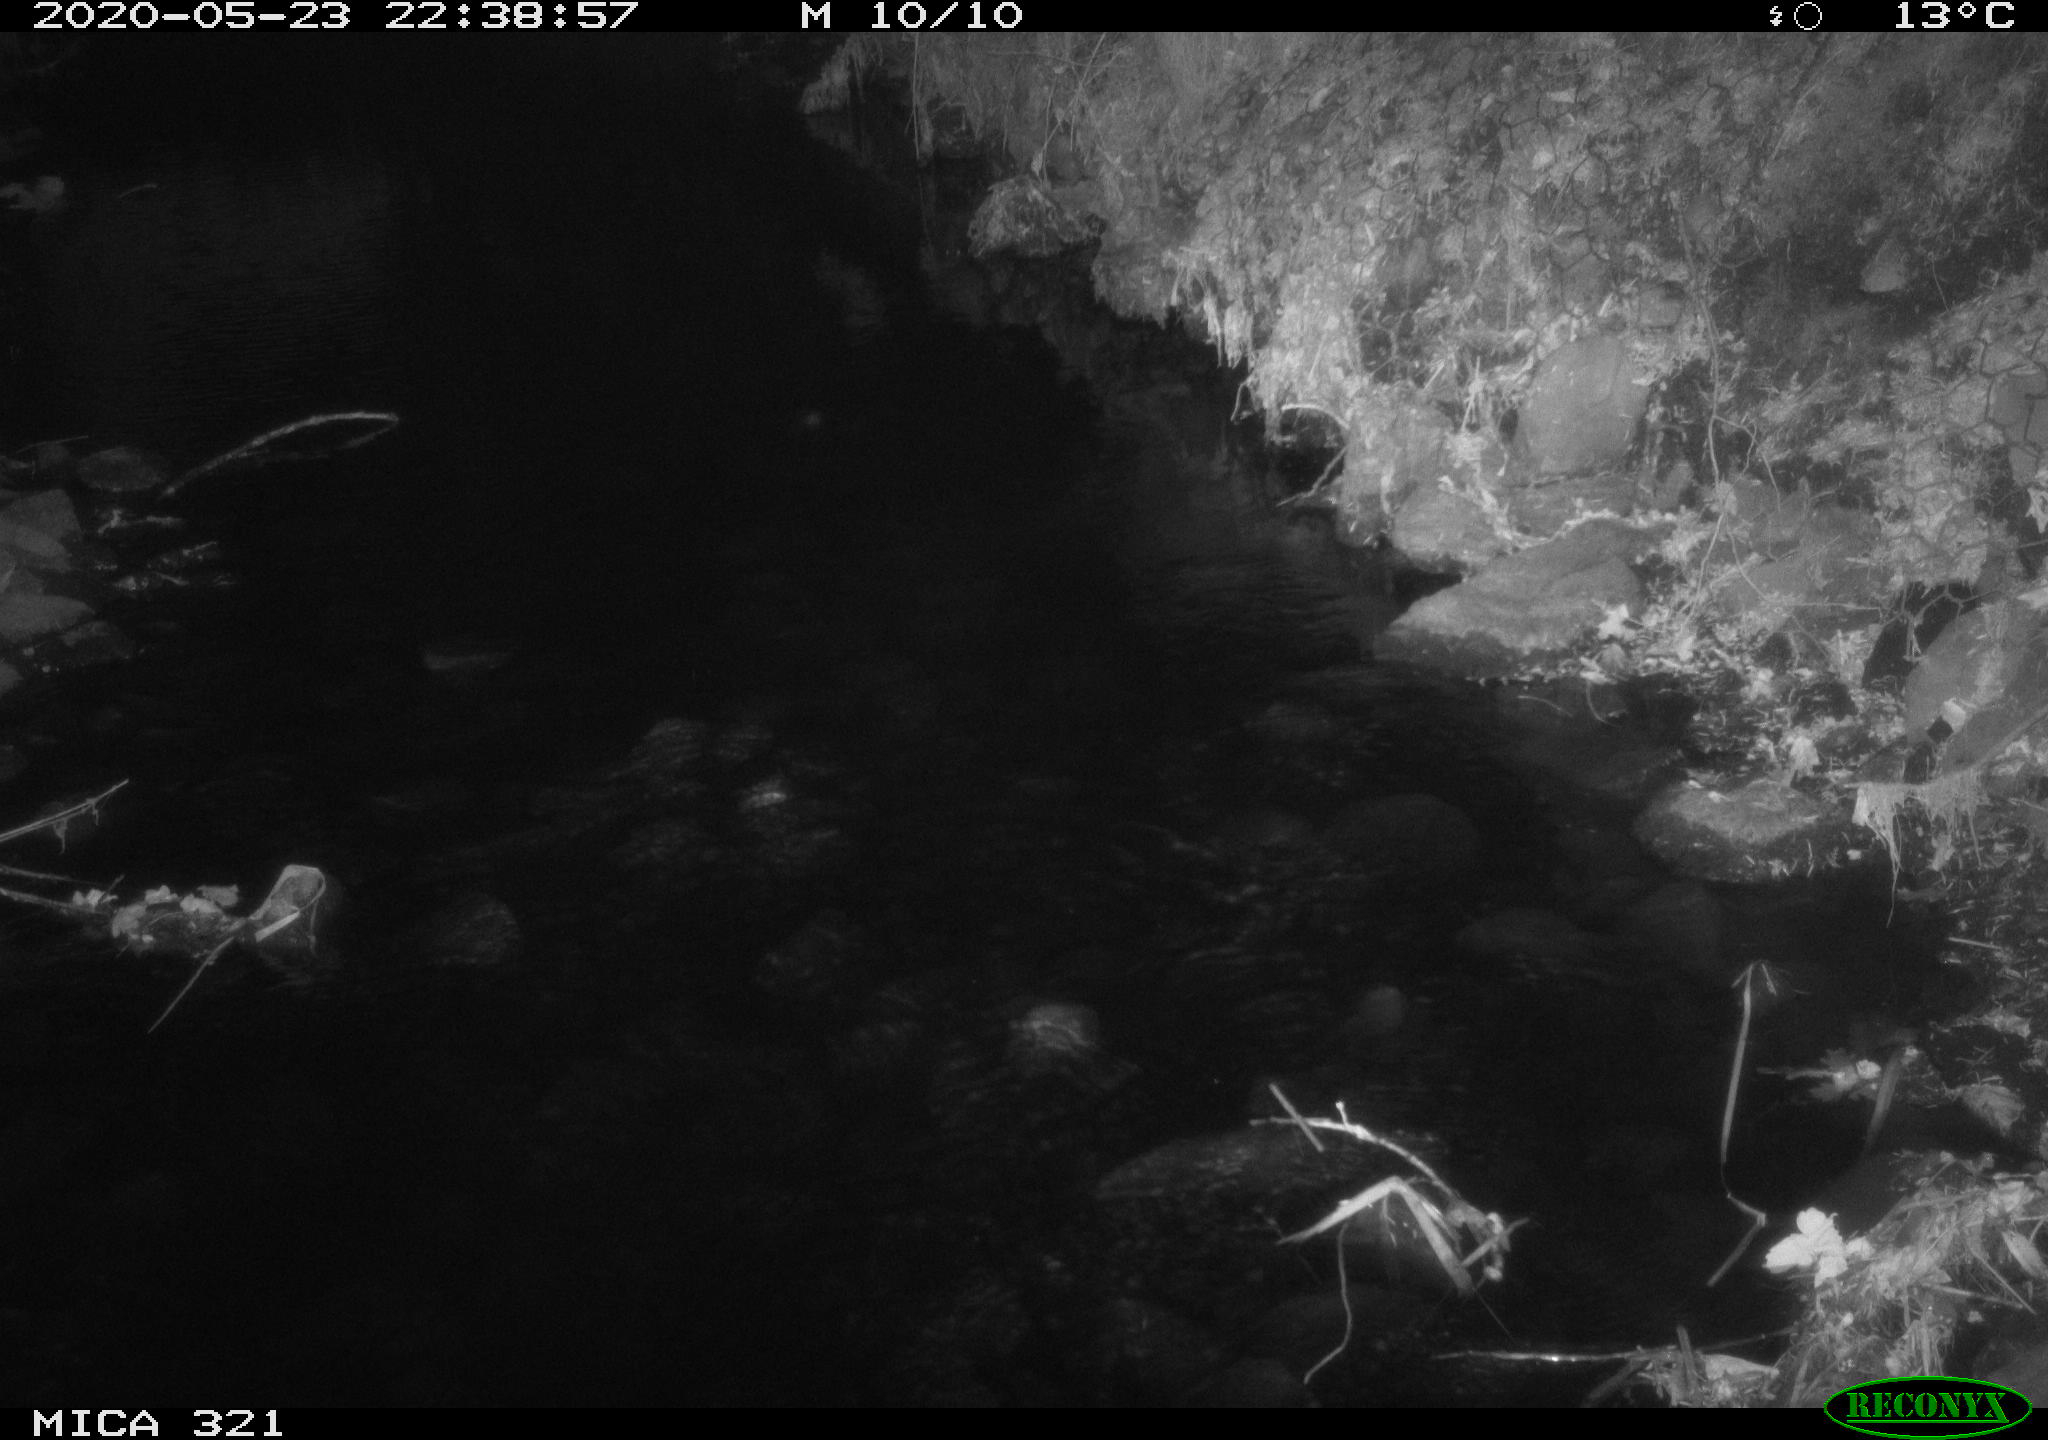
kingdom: Animalia
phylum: Chordata
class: Mammalia
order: Rodentia
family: Muridae
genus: Rattus
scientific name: Rattus norvegicus
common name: Brown rat
